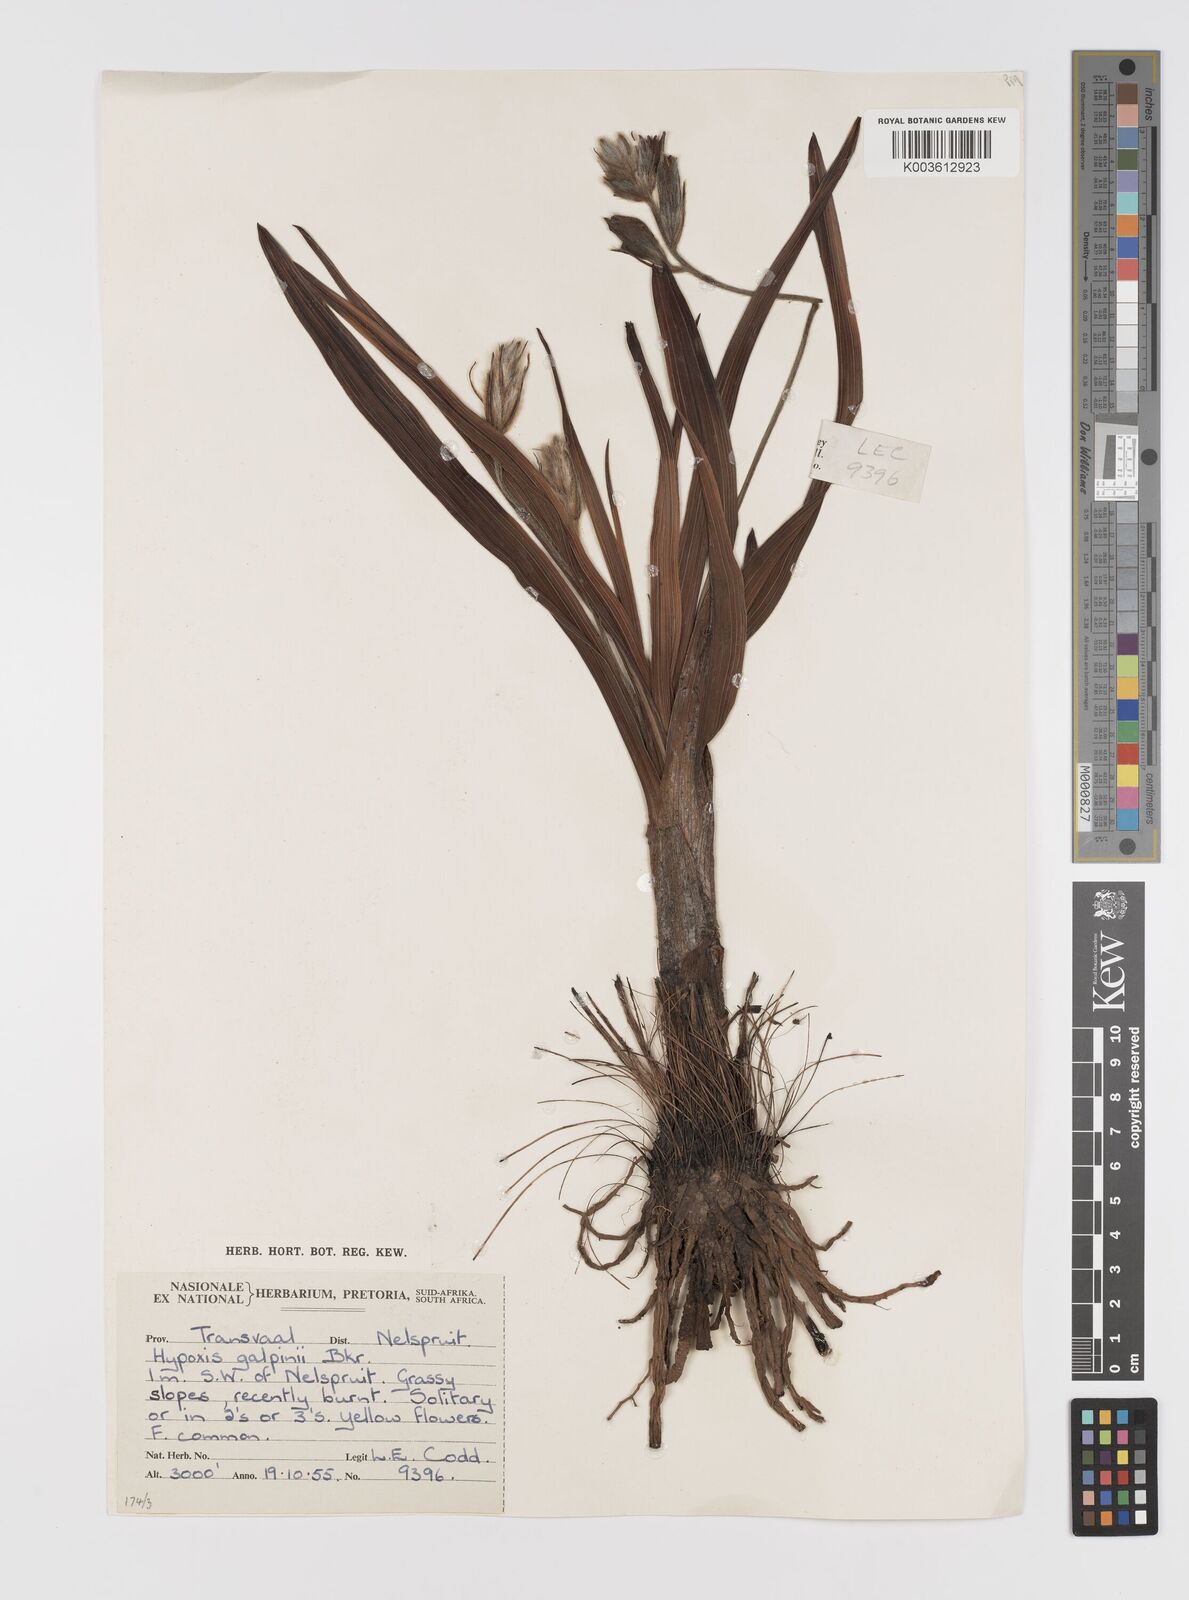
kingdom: Plantae
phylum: Tracheophyta
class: Liliopsida
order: Asparagales
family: Hypoxidaceae
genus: Hypoxis
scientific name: Hypoxis galpinii
